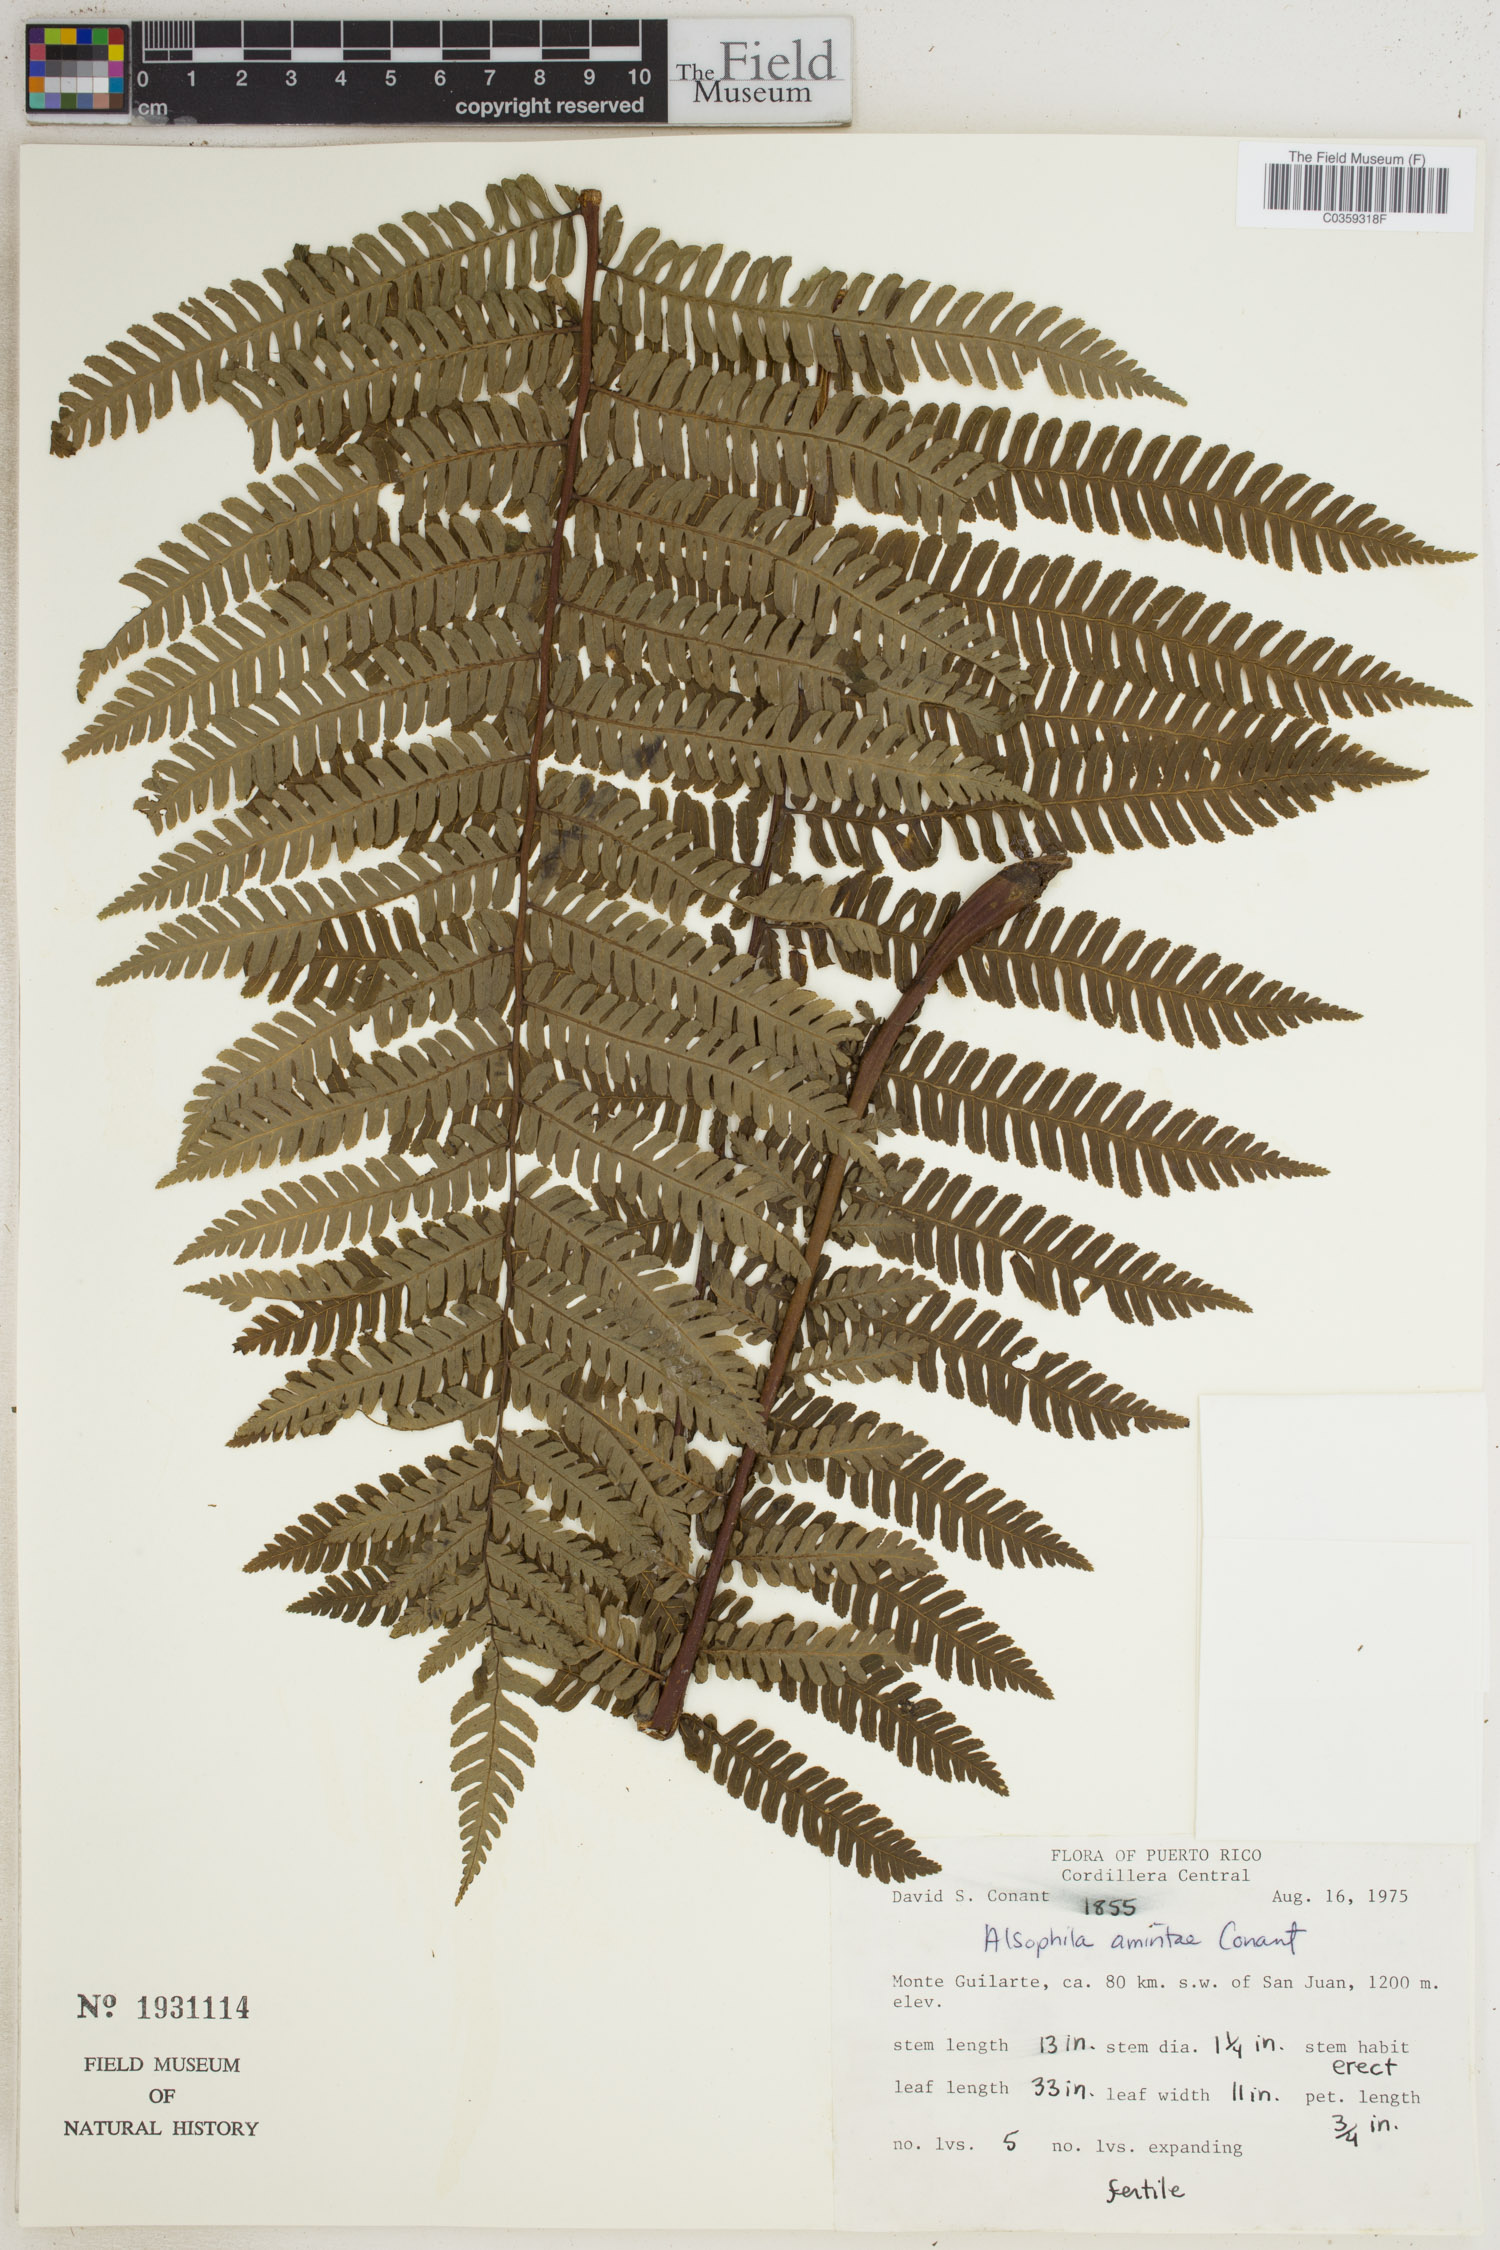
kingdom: Plantae
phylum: Tracheophyta
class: Polypodiopsida
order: Cyatheales
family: Cyatheaceae
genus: Alsophila
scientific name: Alsophila dryopteroides
